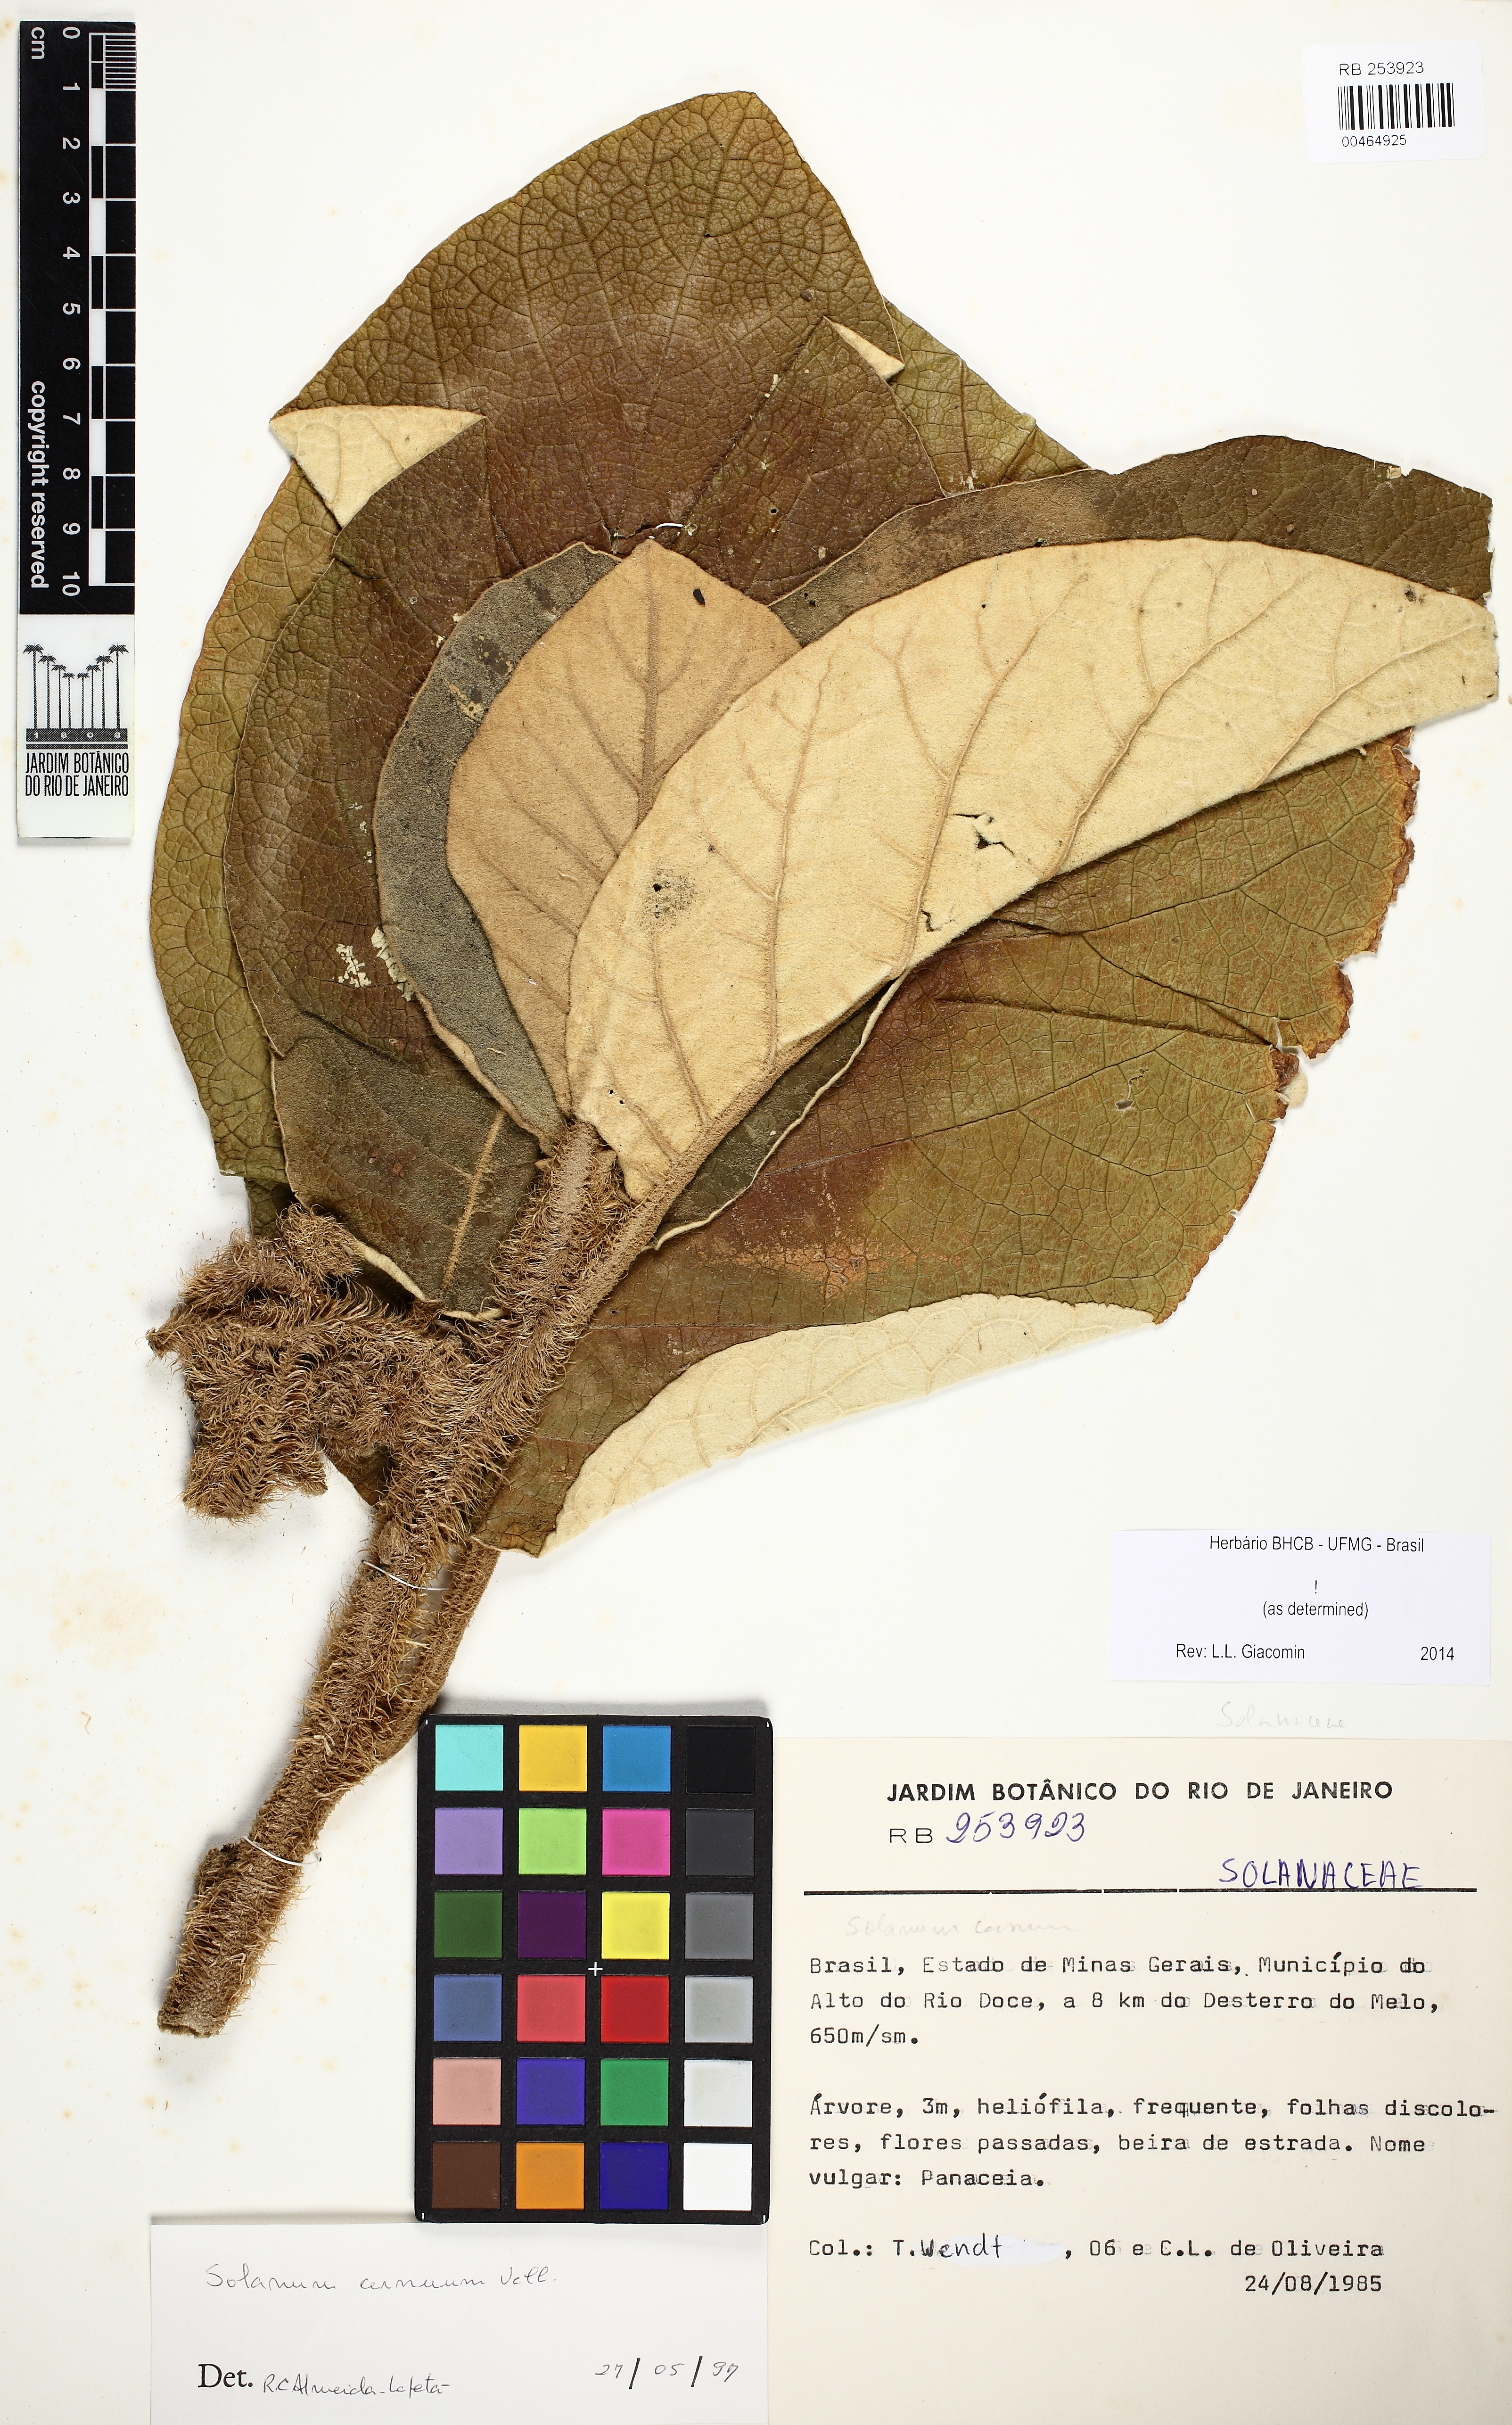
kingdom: Plantae
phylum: Tracheophyta
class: Magnoliopsida
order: Solanales
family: Solanaceae
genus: Solanum
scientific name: Solanum cernuum
